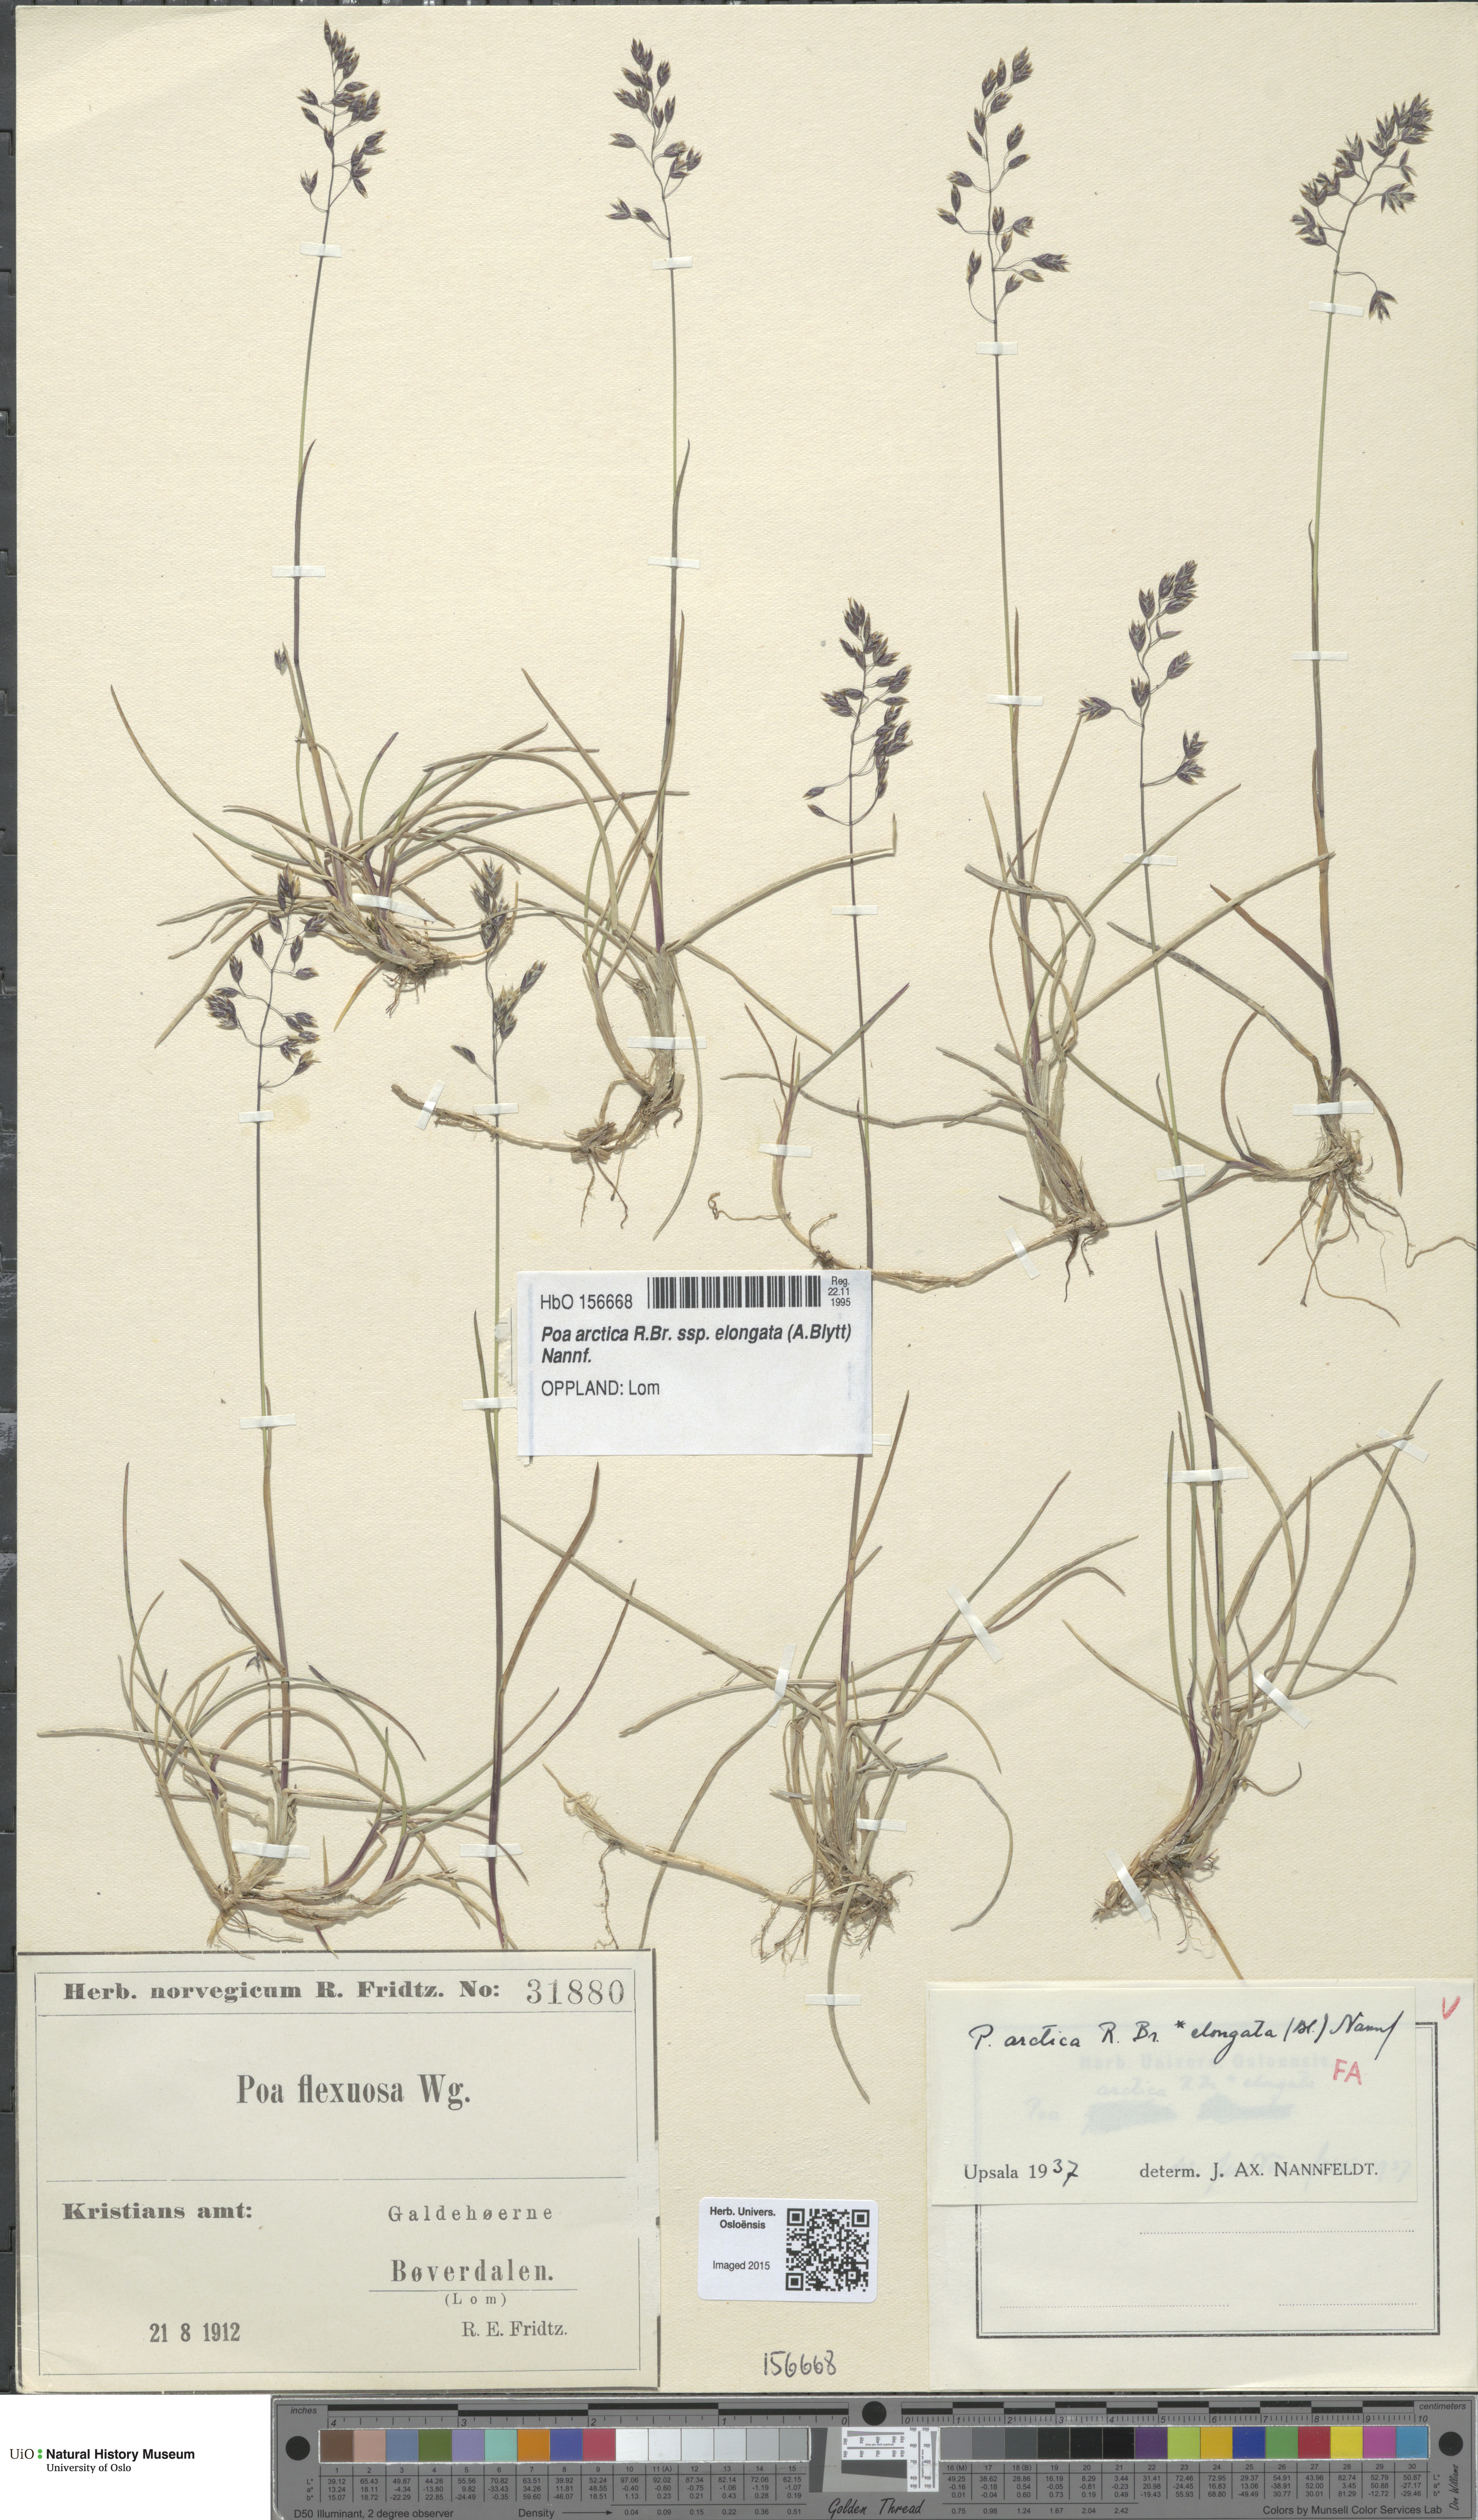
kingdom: Plantae
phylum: Tracheophyta
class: Liliopsida
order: Poales
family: Poaceae
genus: Poa
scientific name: Poa arctica
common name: Arctic bluegrass
